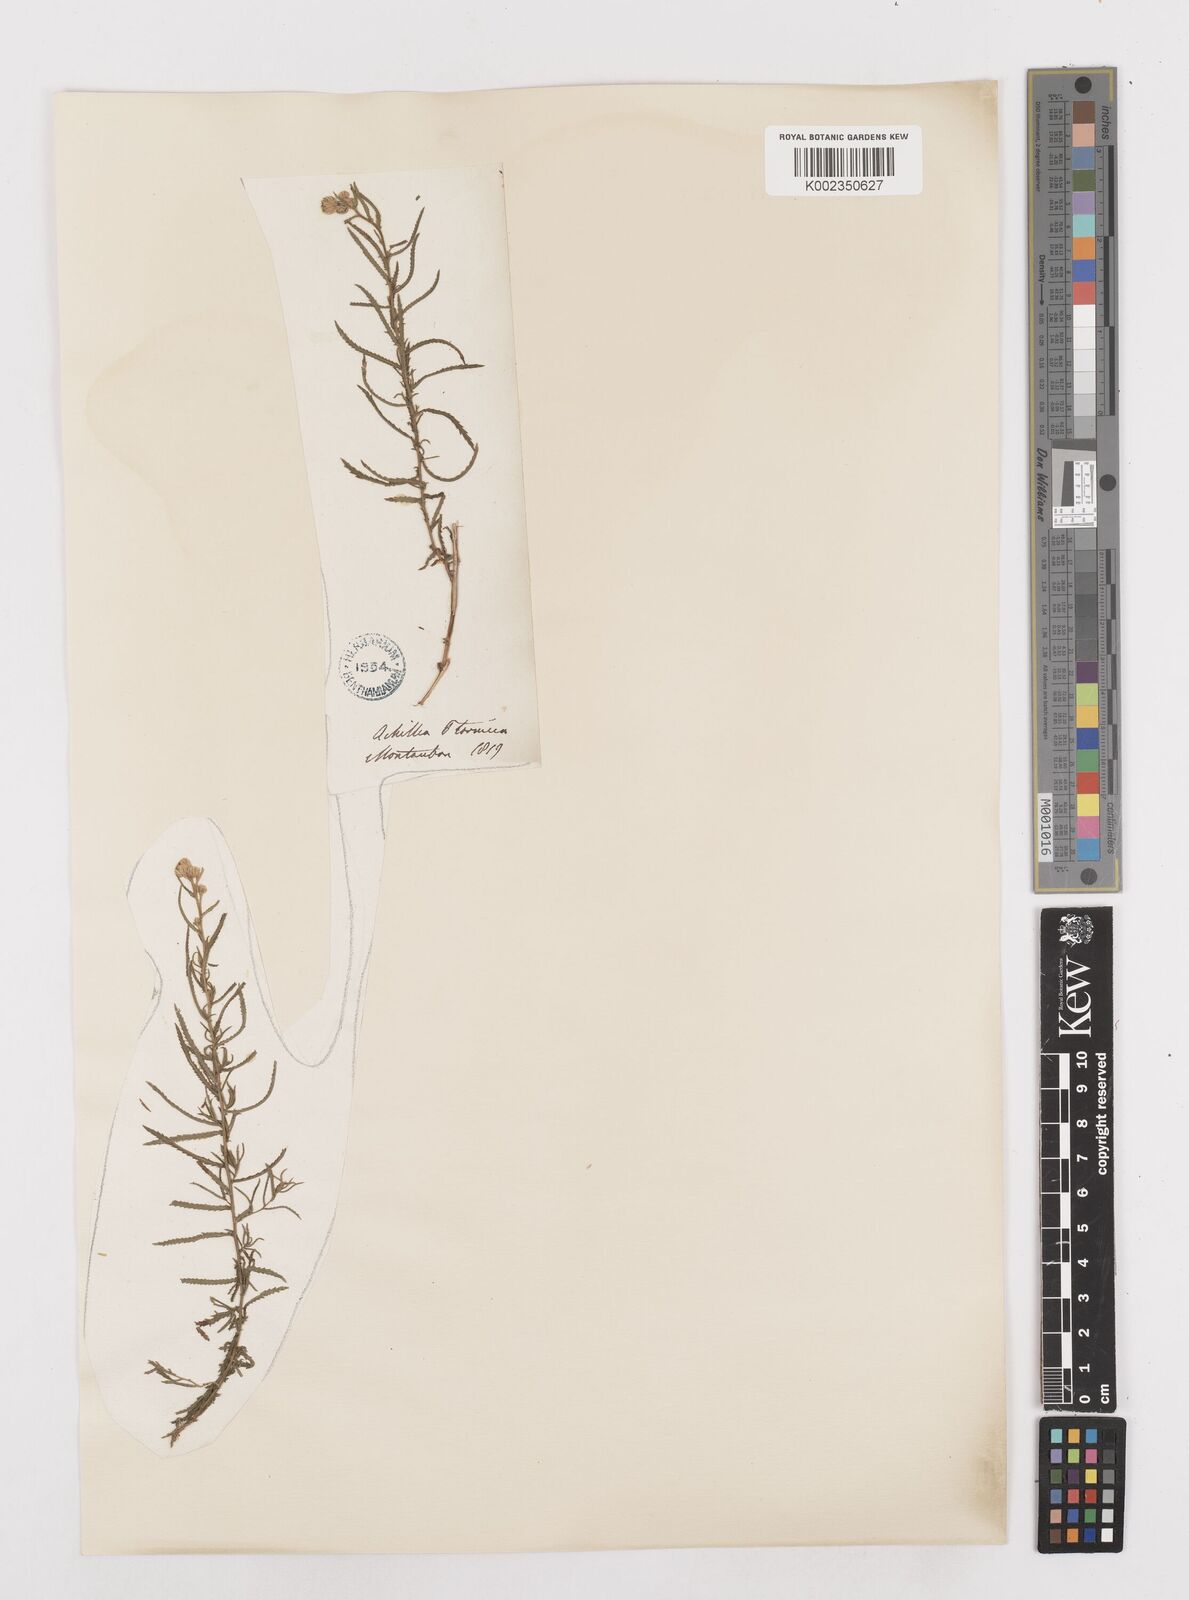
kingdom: Plantae
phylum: Tracheophyta
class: Magnoliopsida
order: Asterales
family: Asteraceae
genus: Achillea
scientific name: Achillea ptarmica
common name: Sneezeweed
